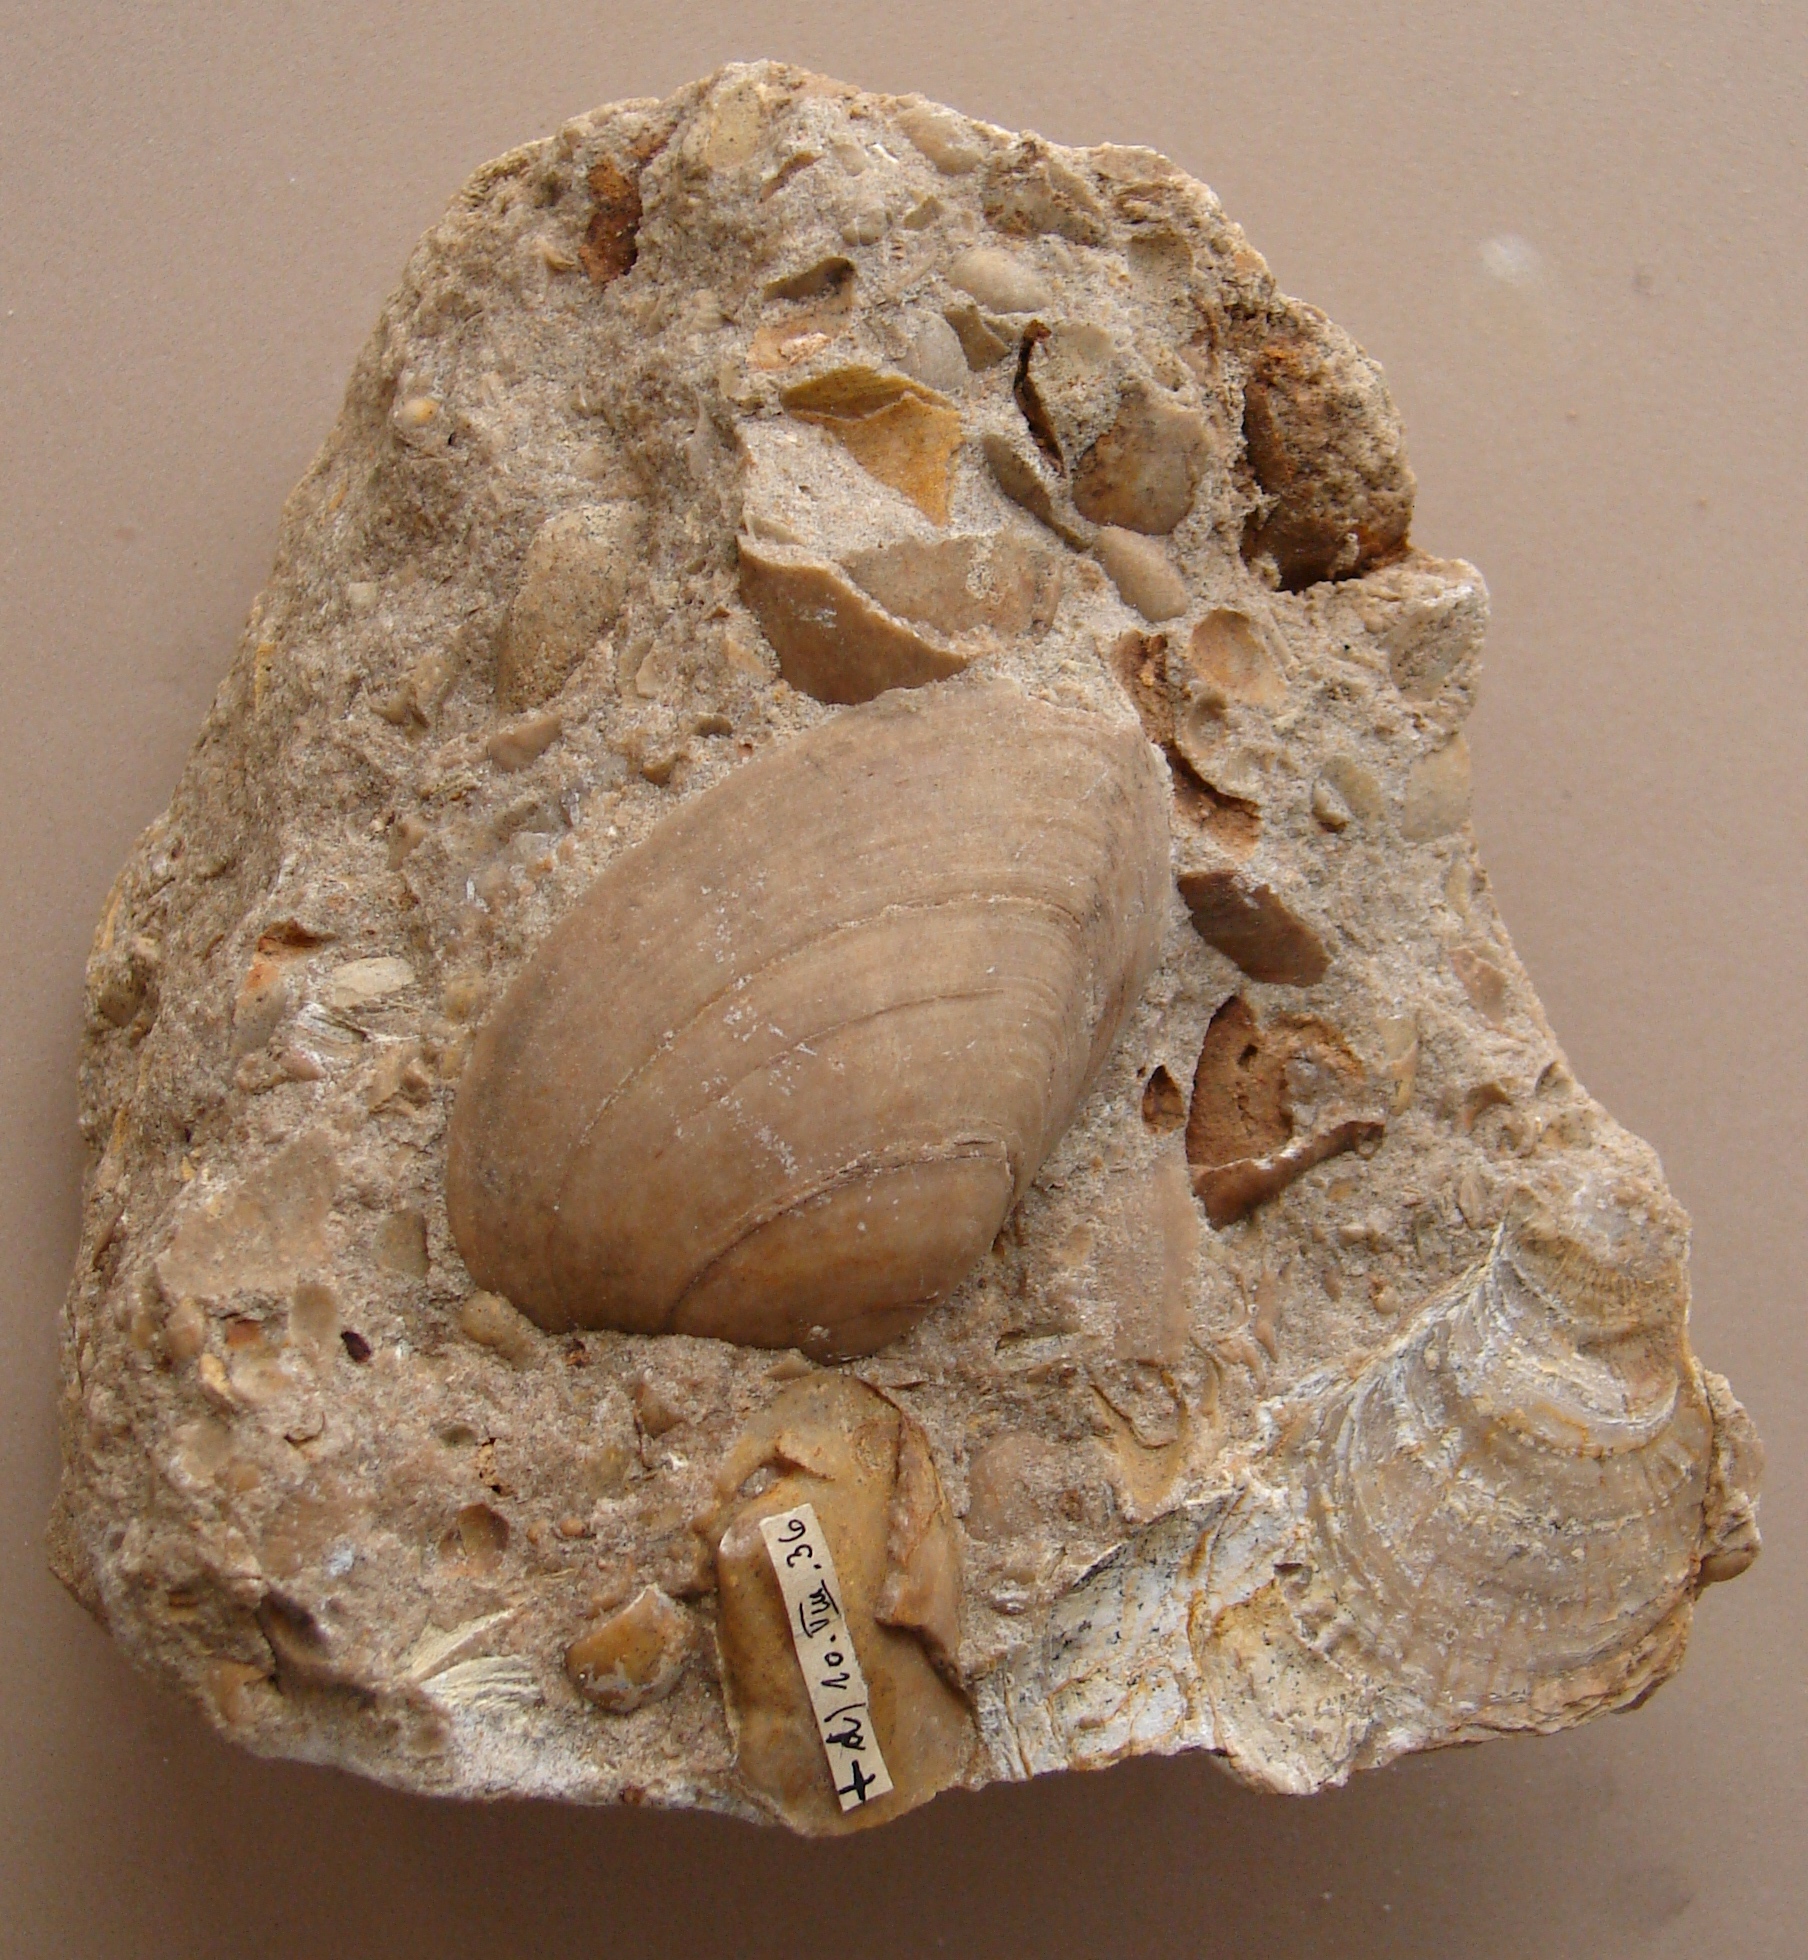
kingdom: Animalia
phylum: Mollusca
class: Bivalvia
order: Carditida
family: Cardiniidae
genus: Cardinia
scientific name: Cardinia
